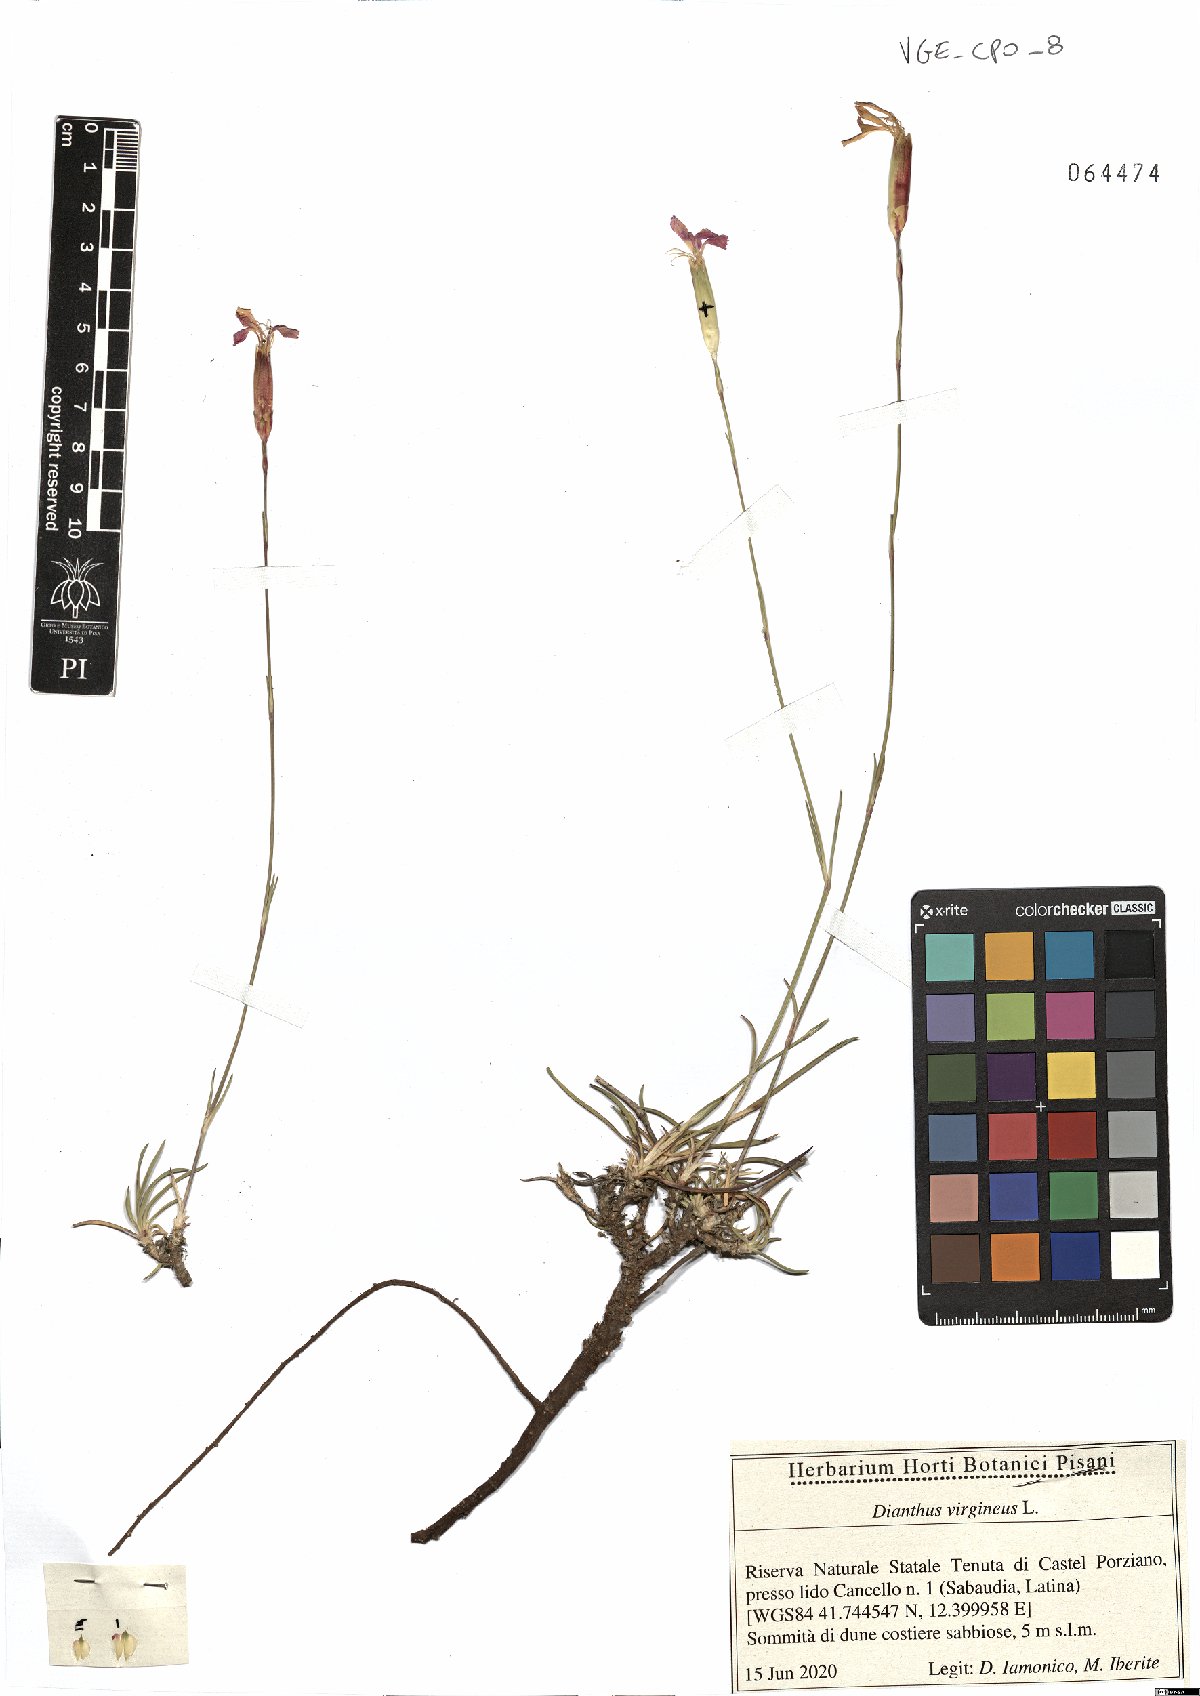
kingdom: Plantae
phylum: Tracheophyta
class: Magnoliopsida
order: Caryophyllales
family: Caryophyllaceae
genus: Dianthus
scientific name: Dianthus virgineus
